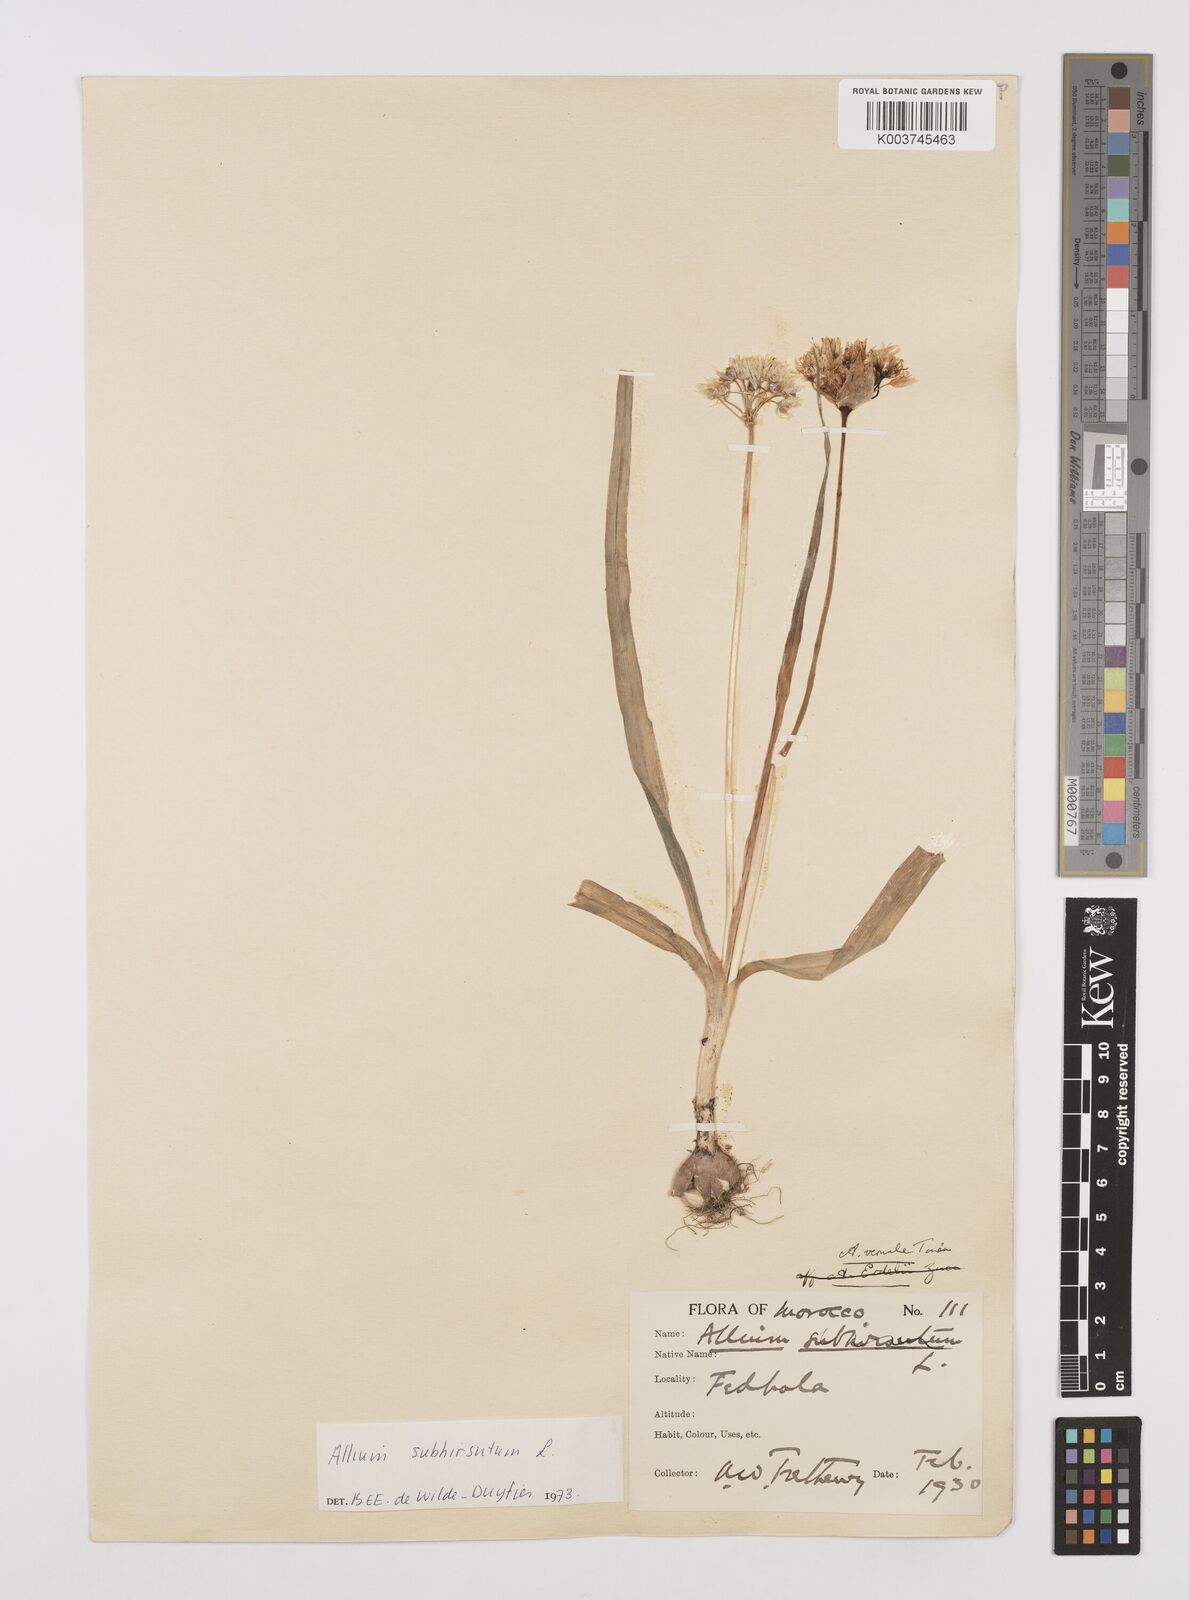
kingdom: Plantae
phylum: Tracheophyta
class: Liliopsida
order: Asparagales
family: Amaryllidaceae
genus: Allium
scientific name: Allium subhirsutum
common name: Hairy garlic
